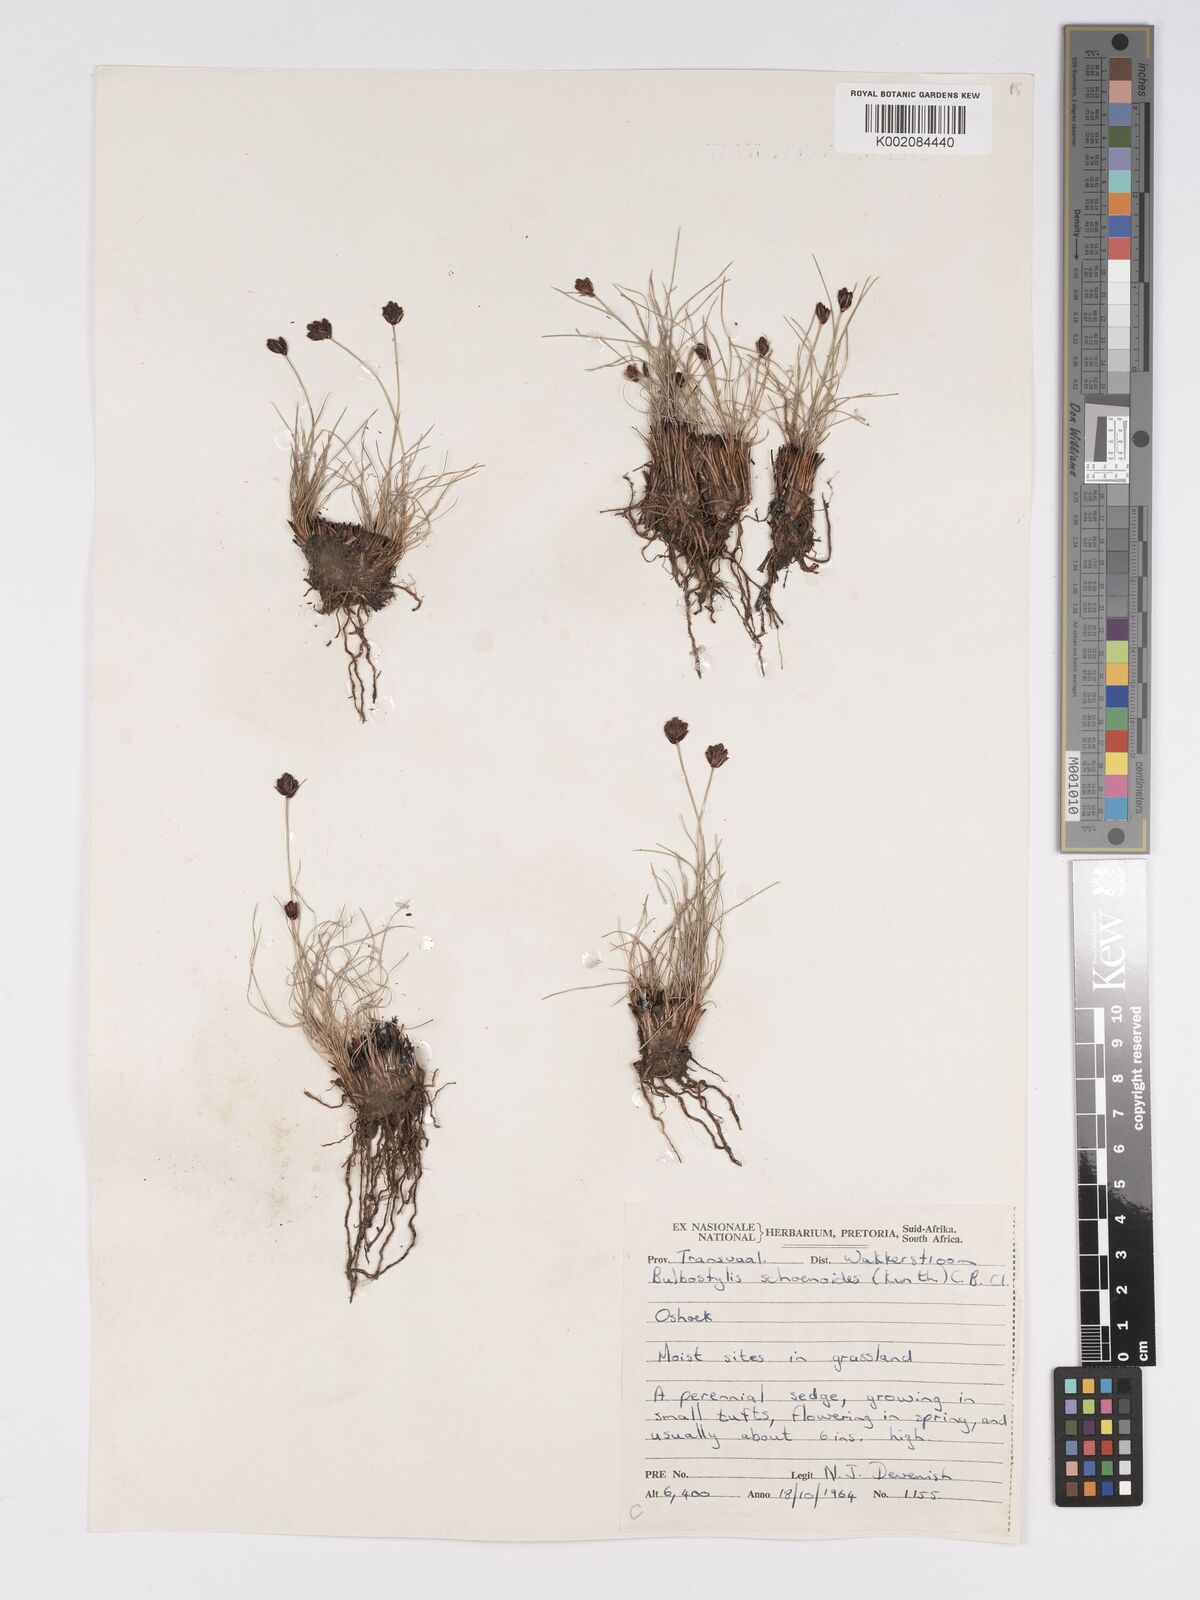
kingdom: Plantae
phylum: Tracheophyta
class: Liliopsida
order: Poales
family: Cyperaceae
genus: Bulbostylis
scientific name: Bulbostylis schoenoides
